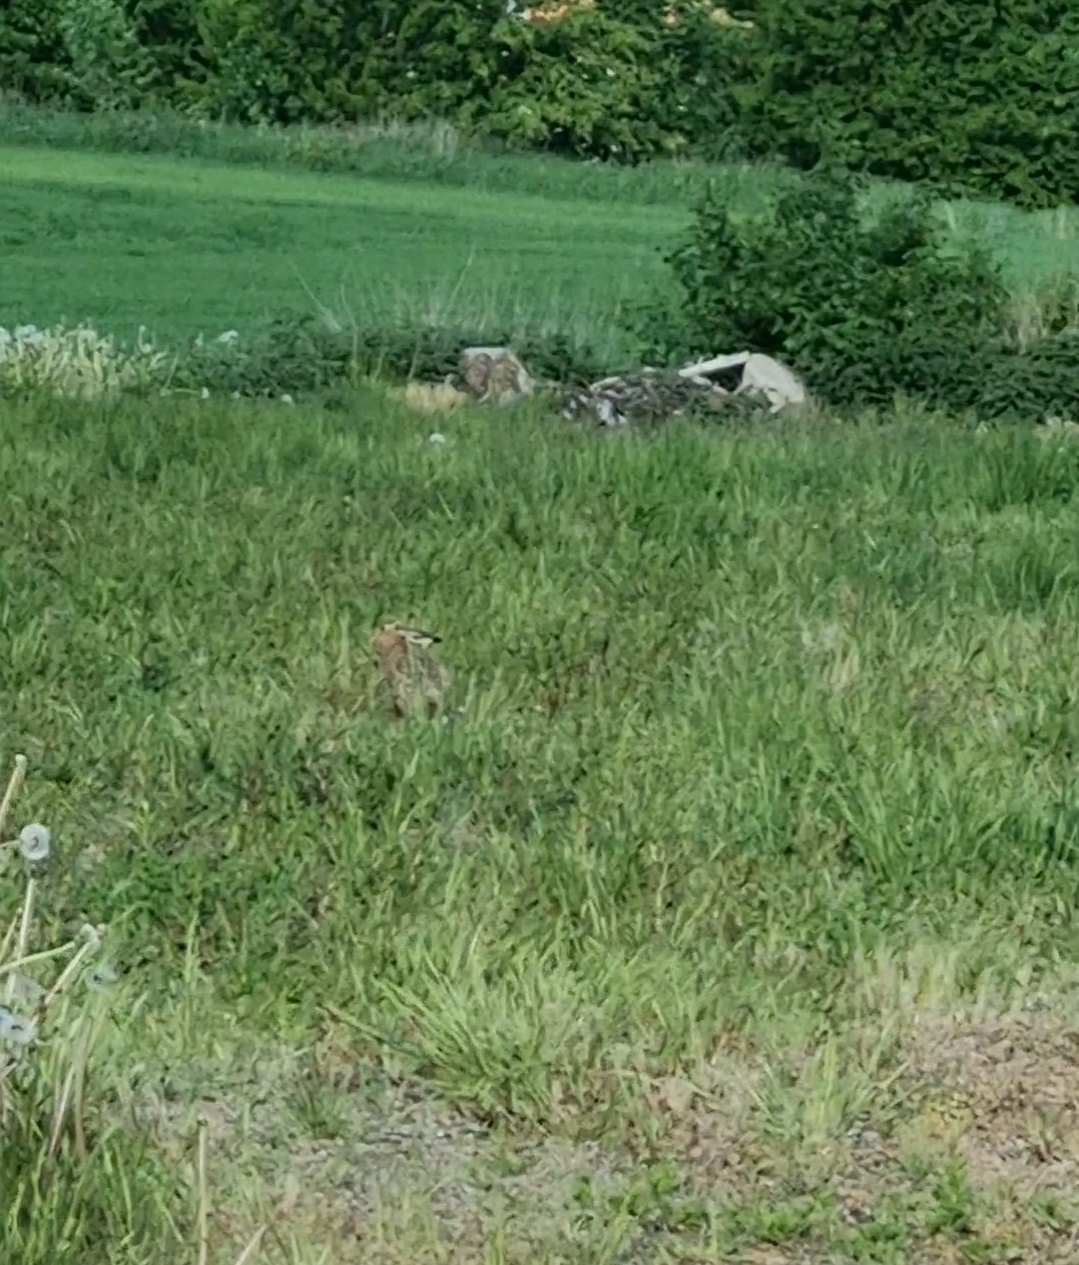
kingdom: Animalia
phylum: Chordata
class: Mammalia
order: Lagomorpha
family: Leporidae
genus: Lepus
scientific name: Lepus europaeus
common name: Hare
